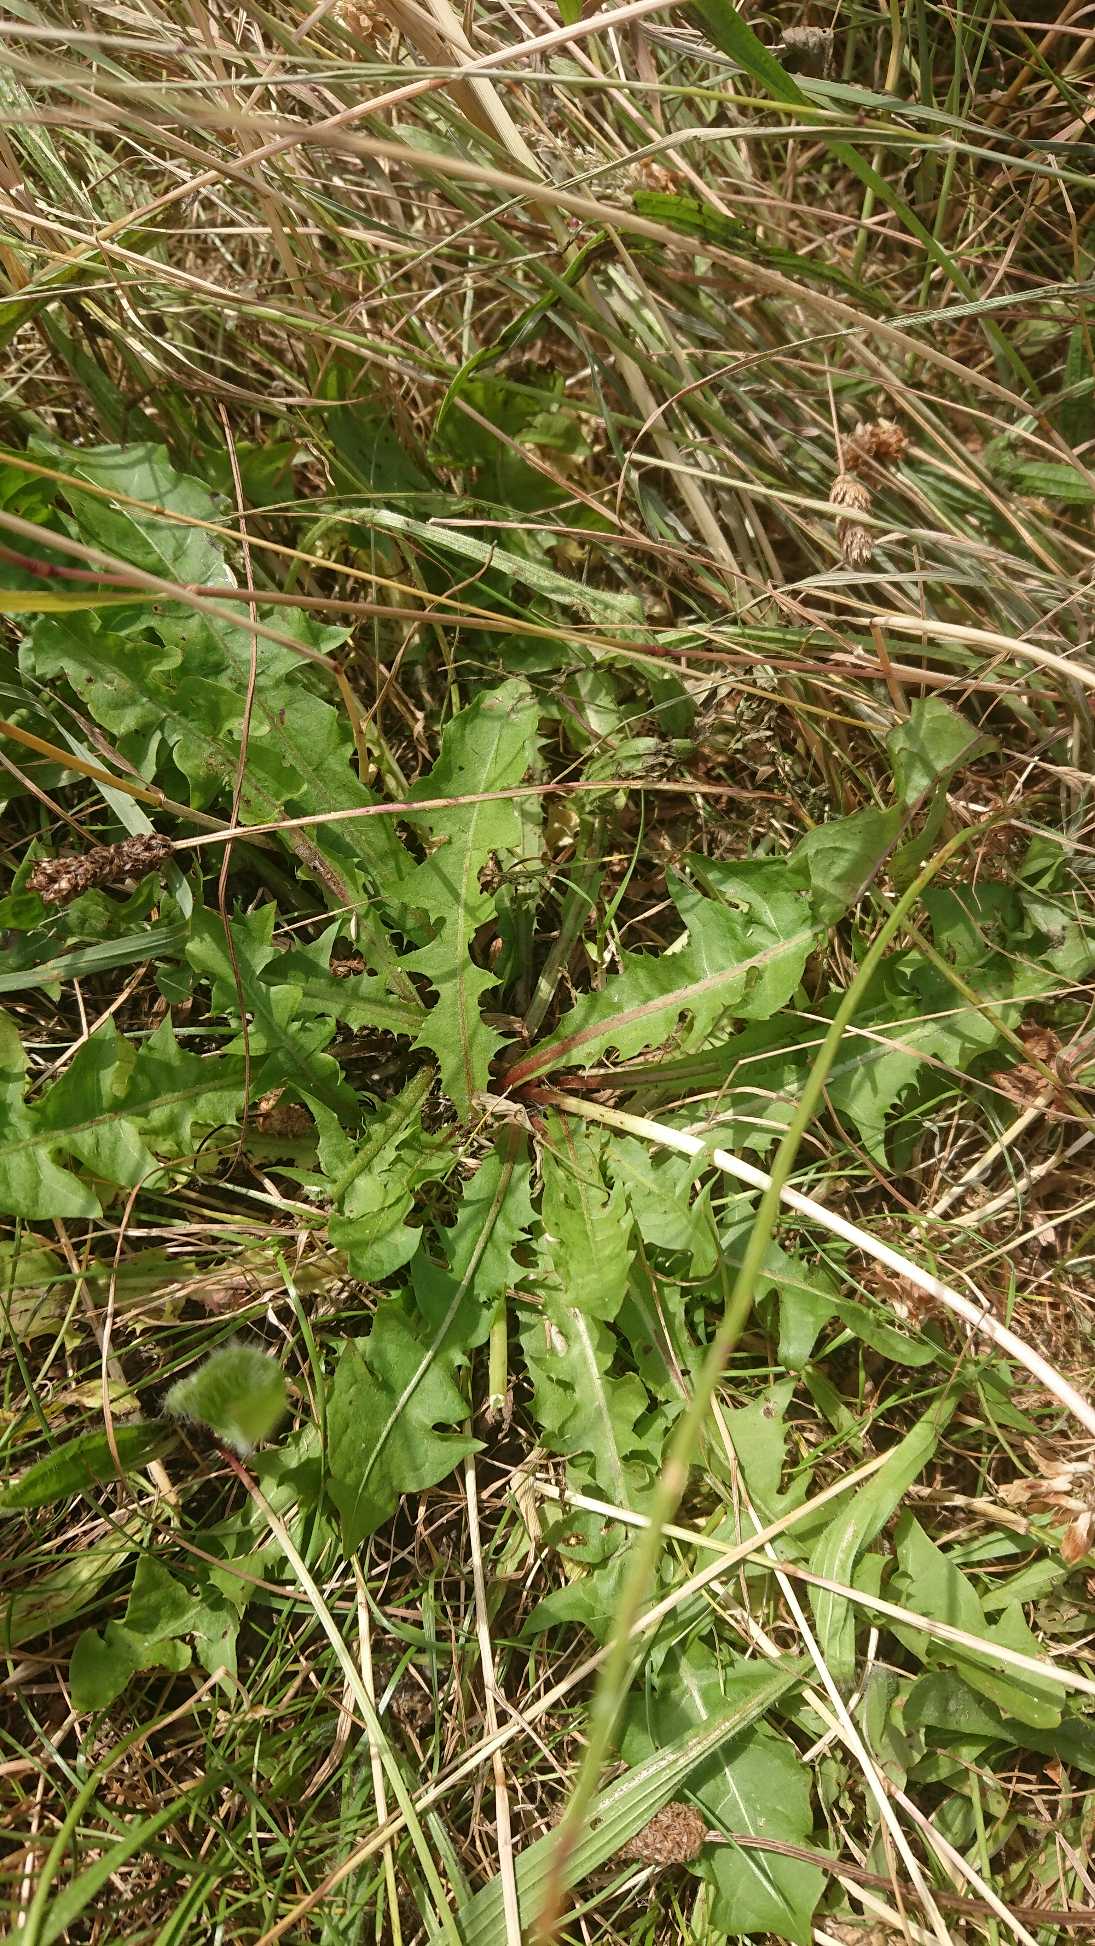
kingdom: Plantae
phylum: Tracheophyta
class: Magnoliopsida
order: Asterales
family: Asteraceae
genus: Taraxacum
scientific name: Taraxacum
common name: Mælkebøtteslægten
